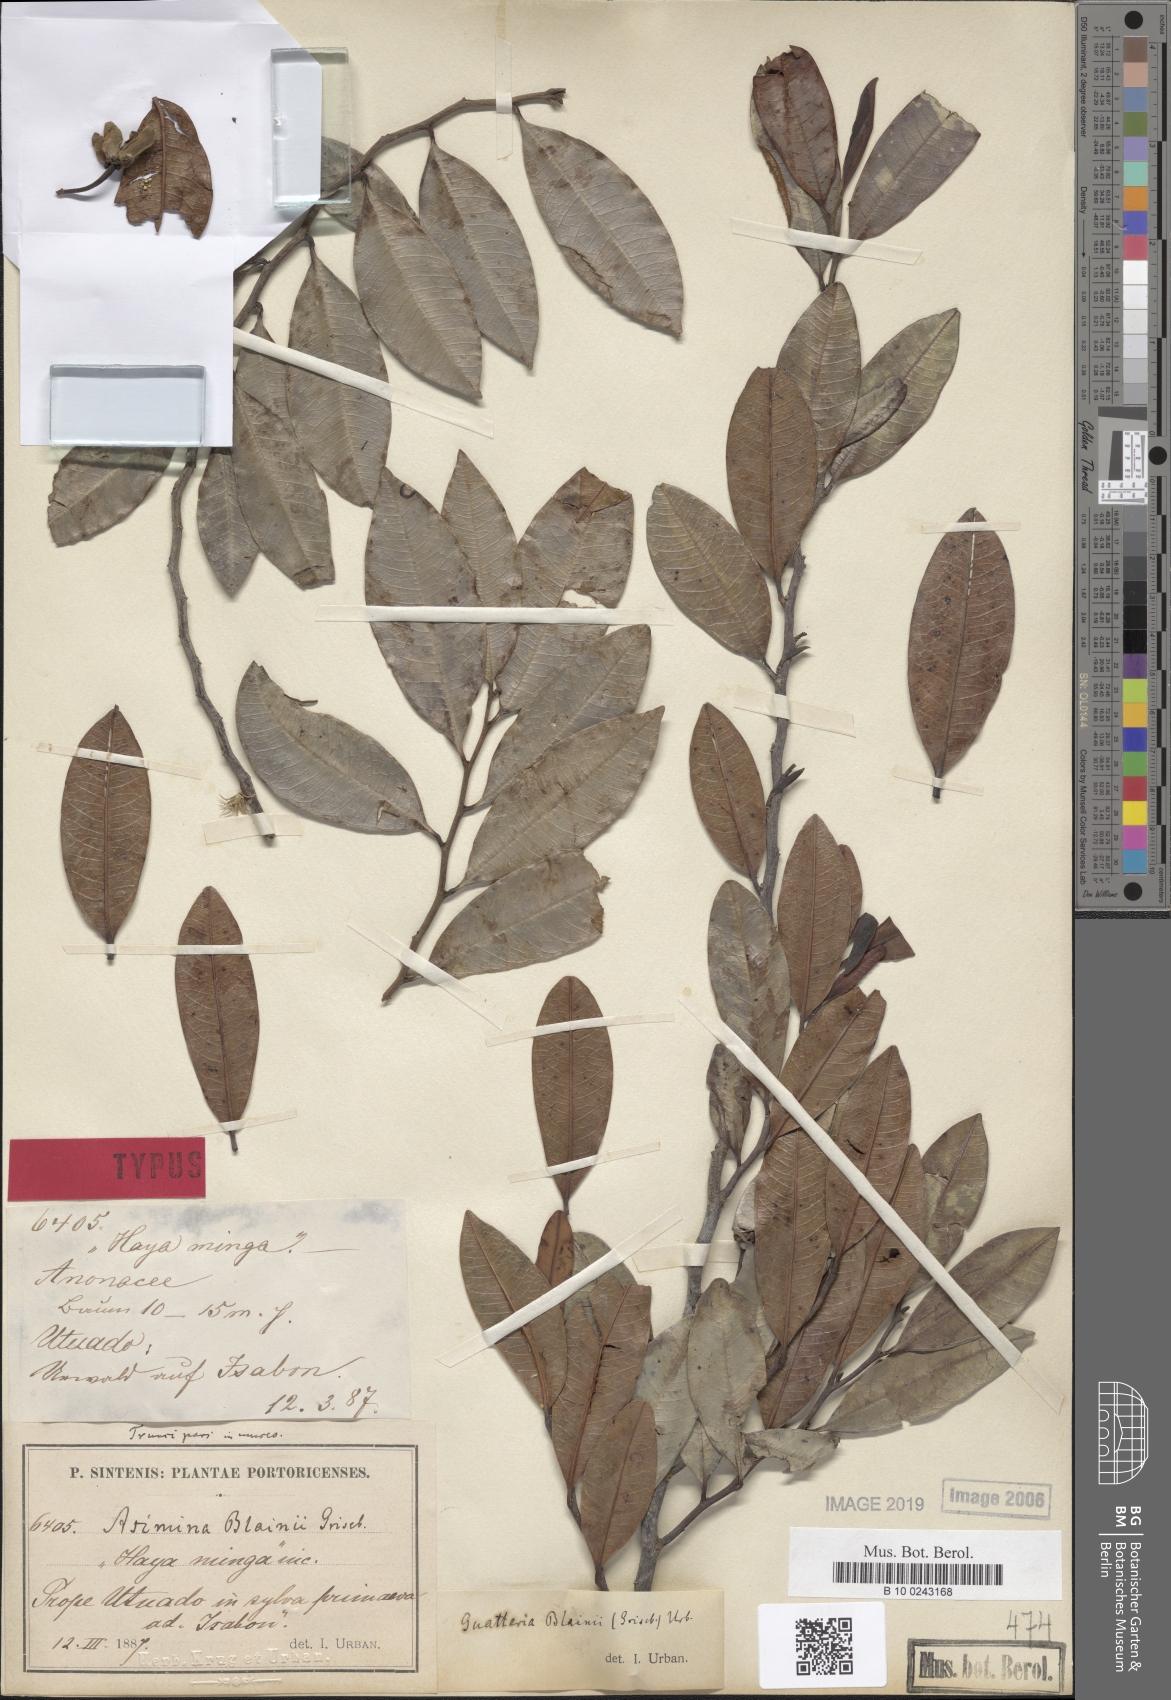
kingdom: Plantae
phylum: Tracheophyta
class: Magnoliopsida
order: Magnoliales
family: Annonaceae
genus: Guatteria
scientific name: Guatteria blainii
